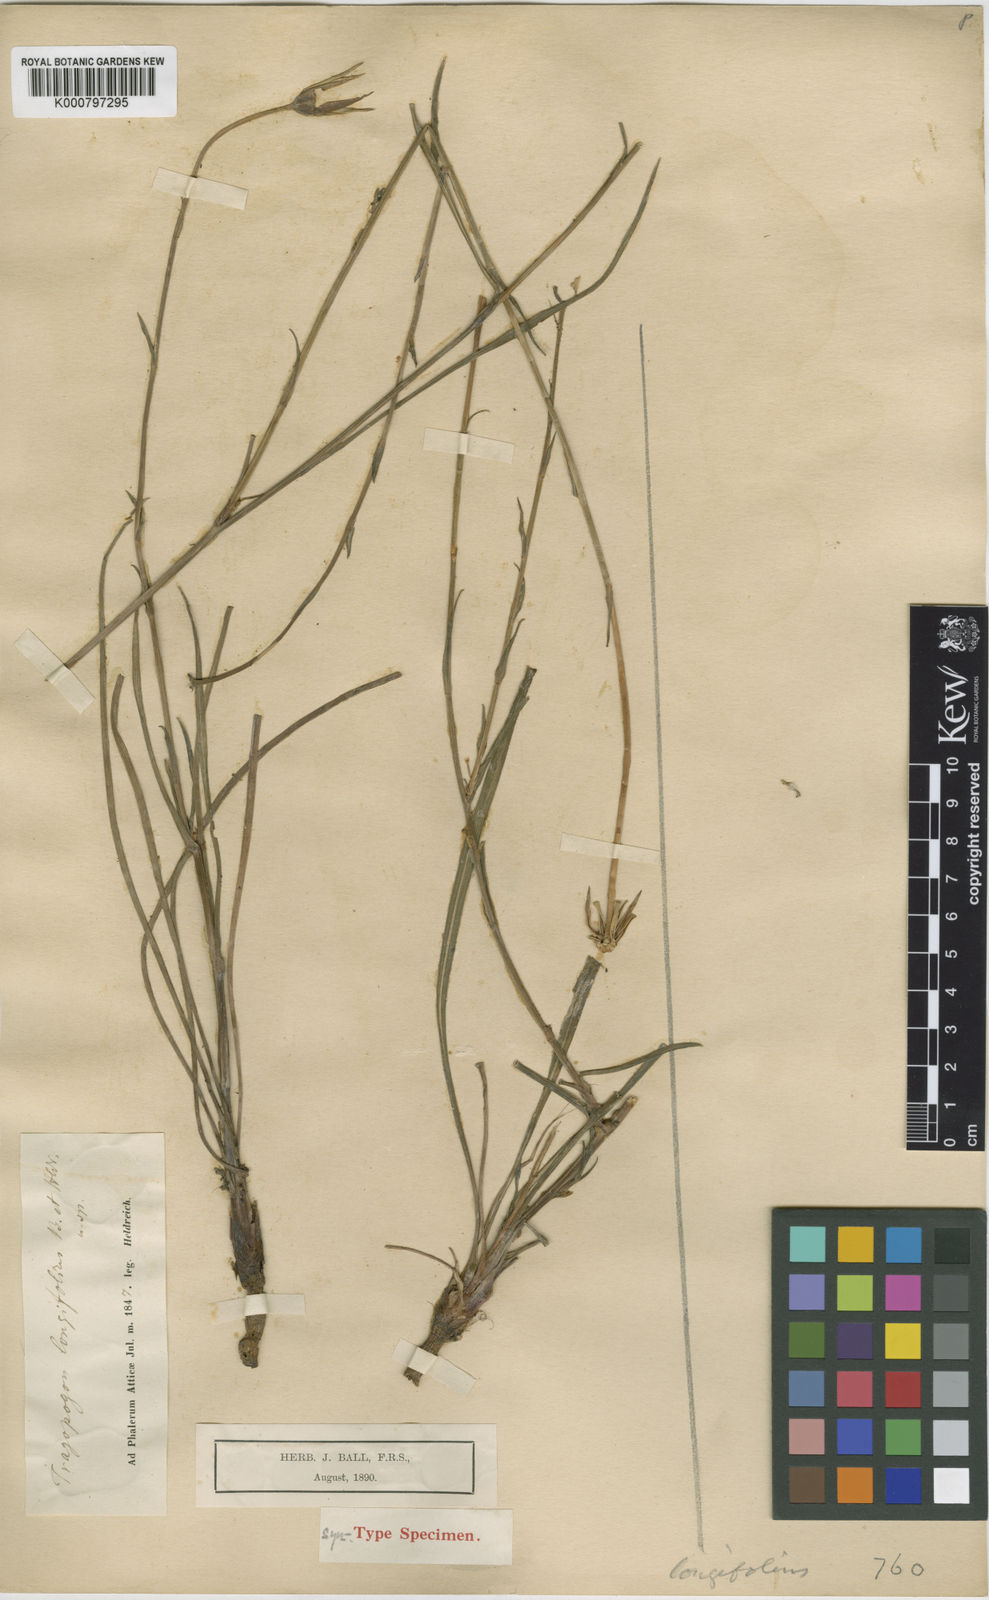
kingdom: Plantae
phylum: Tracheophyta
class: Magnoliopsida
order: Asterales
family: Asteraceae
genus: Tragopogon
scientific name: Tragopogon
